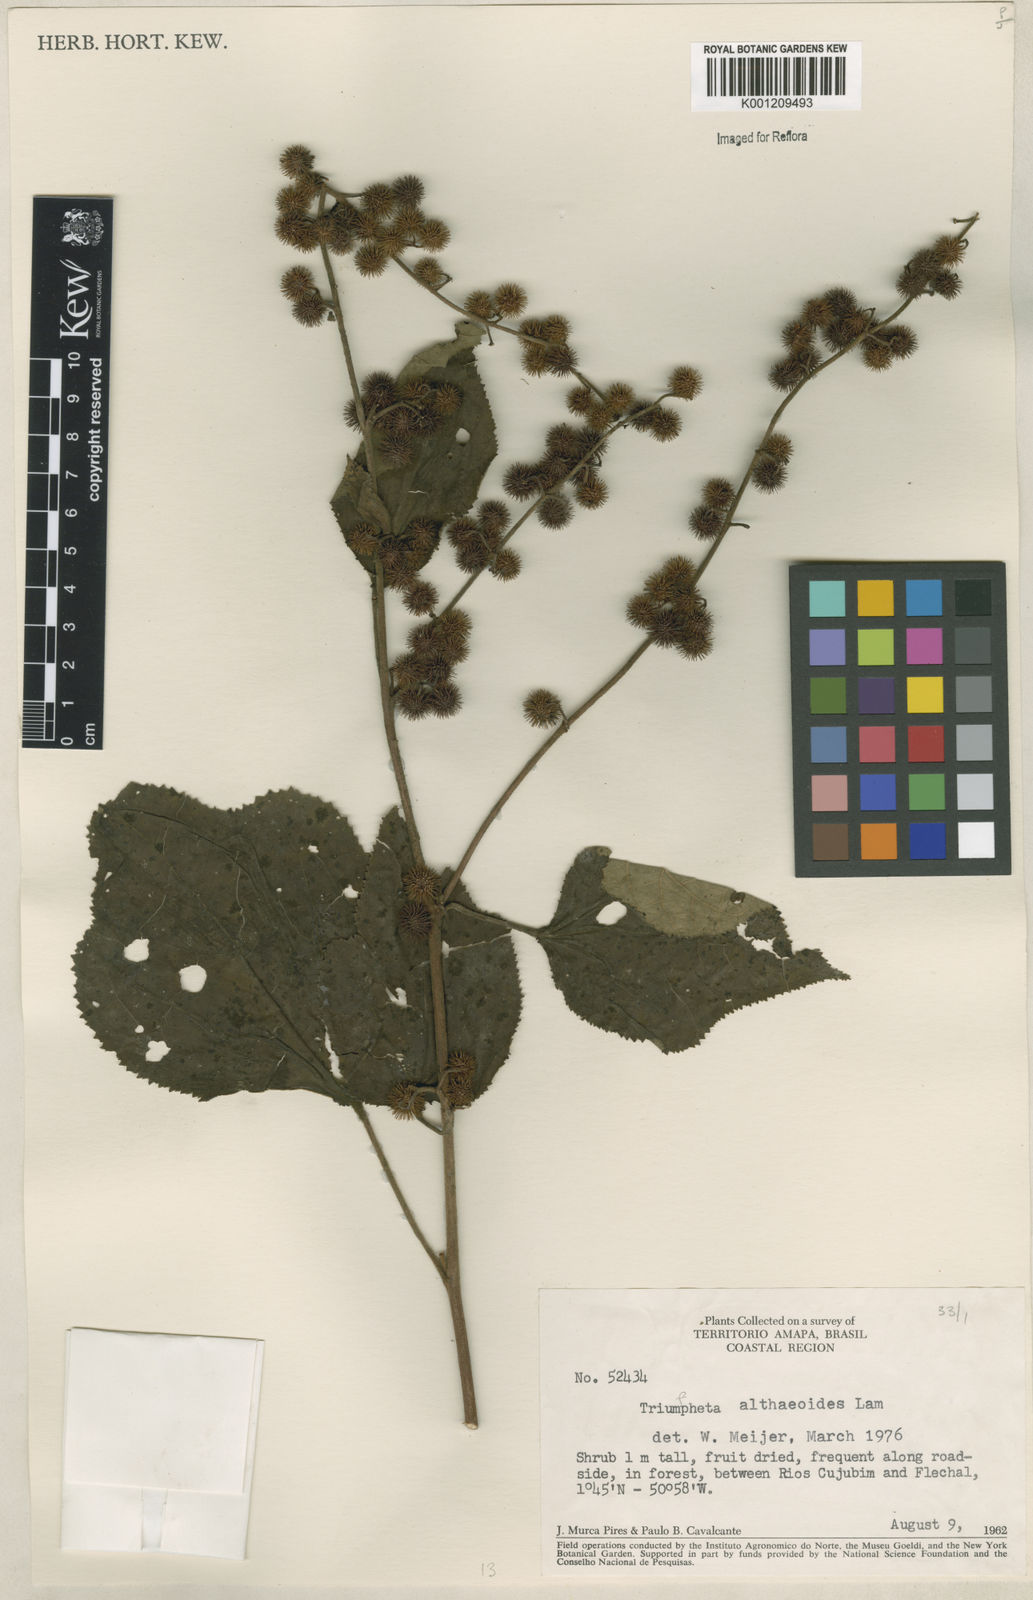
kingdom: Plantae
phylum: Tracheophyta
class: Magnoliopsida
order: Malvales
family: Malvaceae
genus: Triumfetta
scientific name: Triumfetta althaeoides
